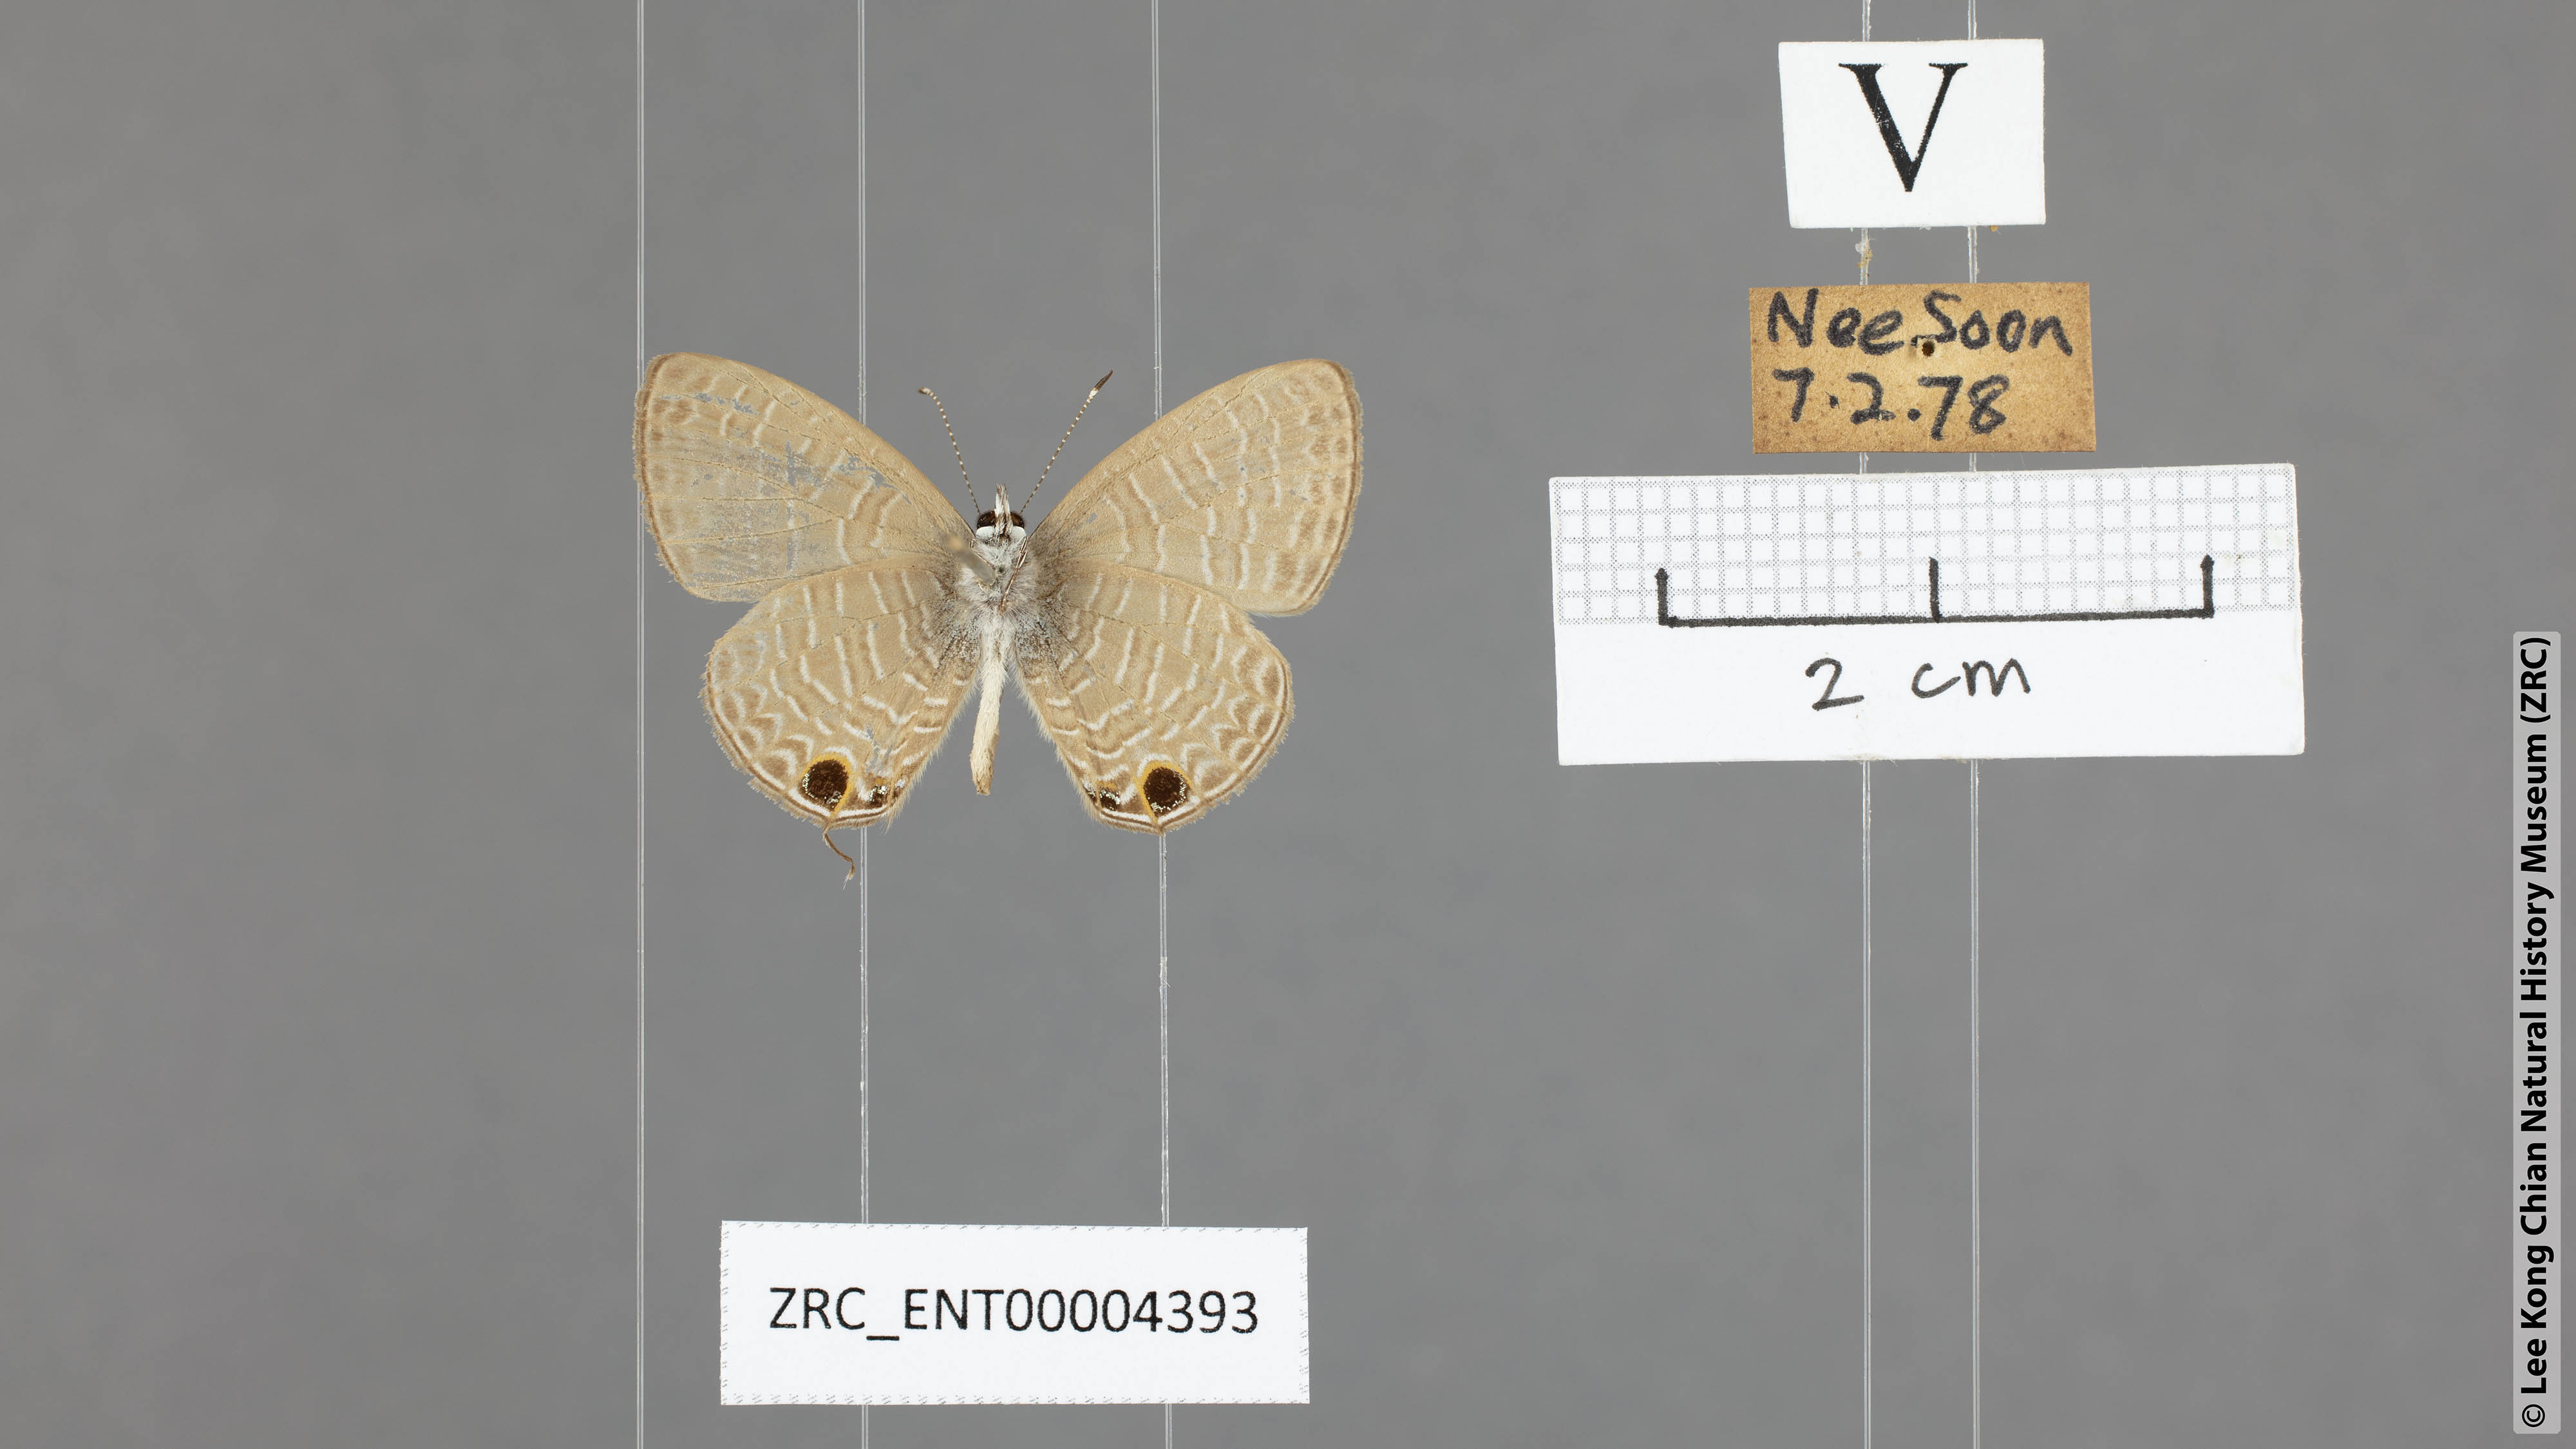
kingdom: Animalia
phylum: Arthropoda
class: Insecta
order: Lepidoptera
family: Lycaenidae
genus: Nacaduba
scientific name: Nacaduba berenice
